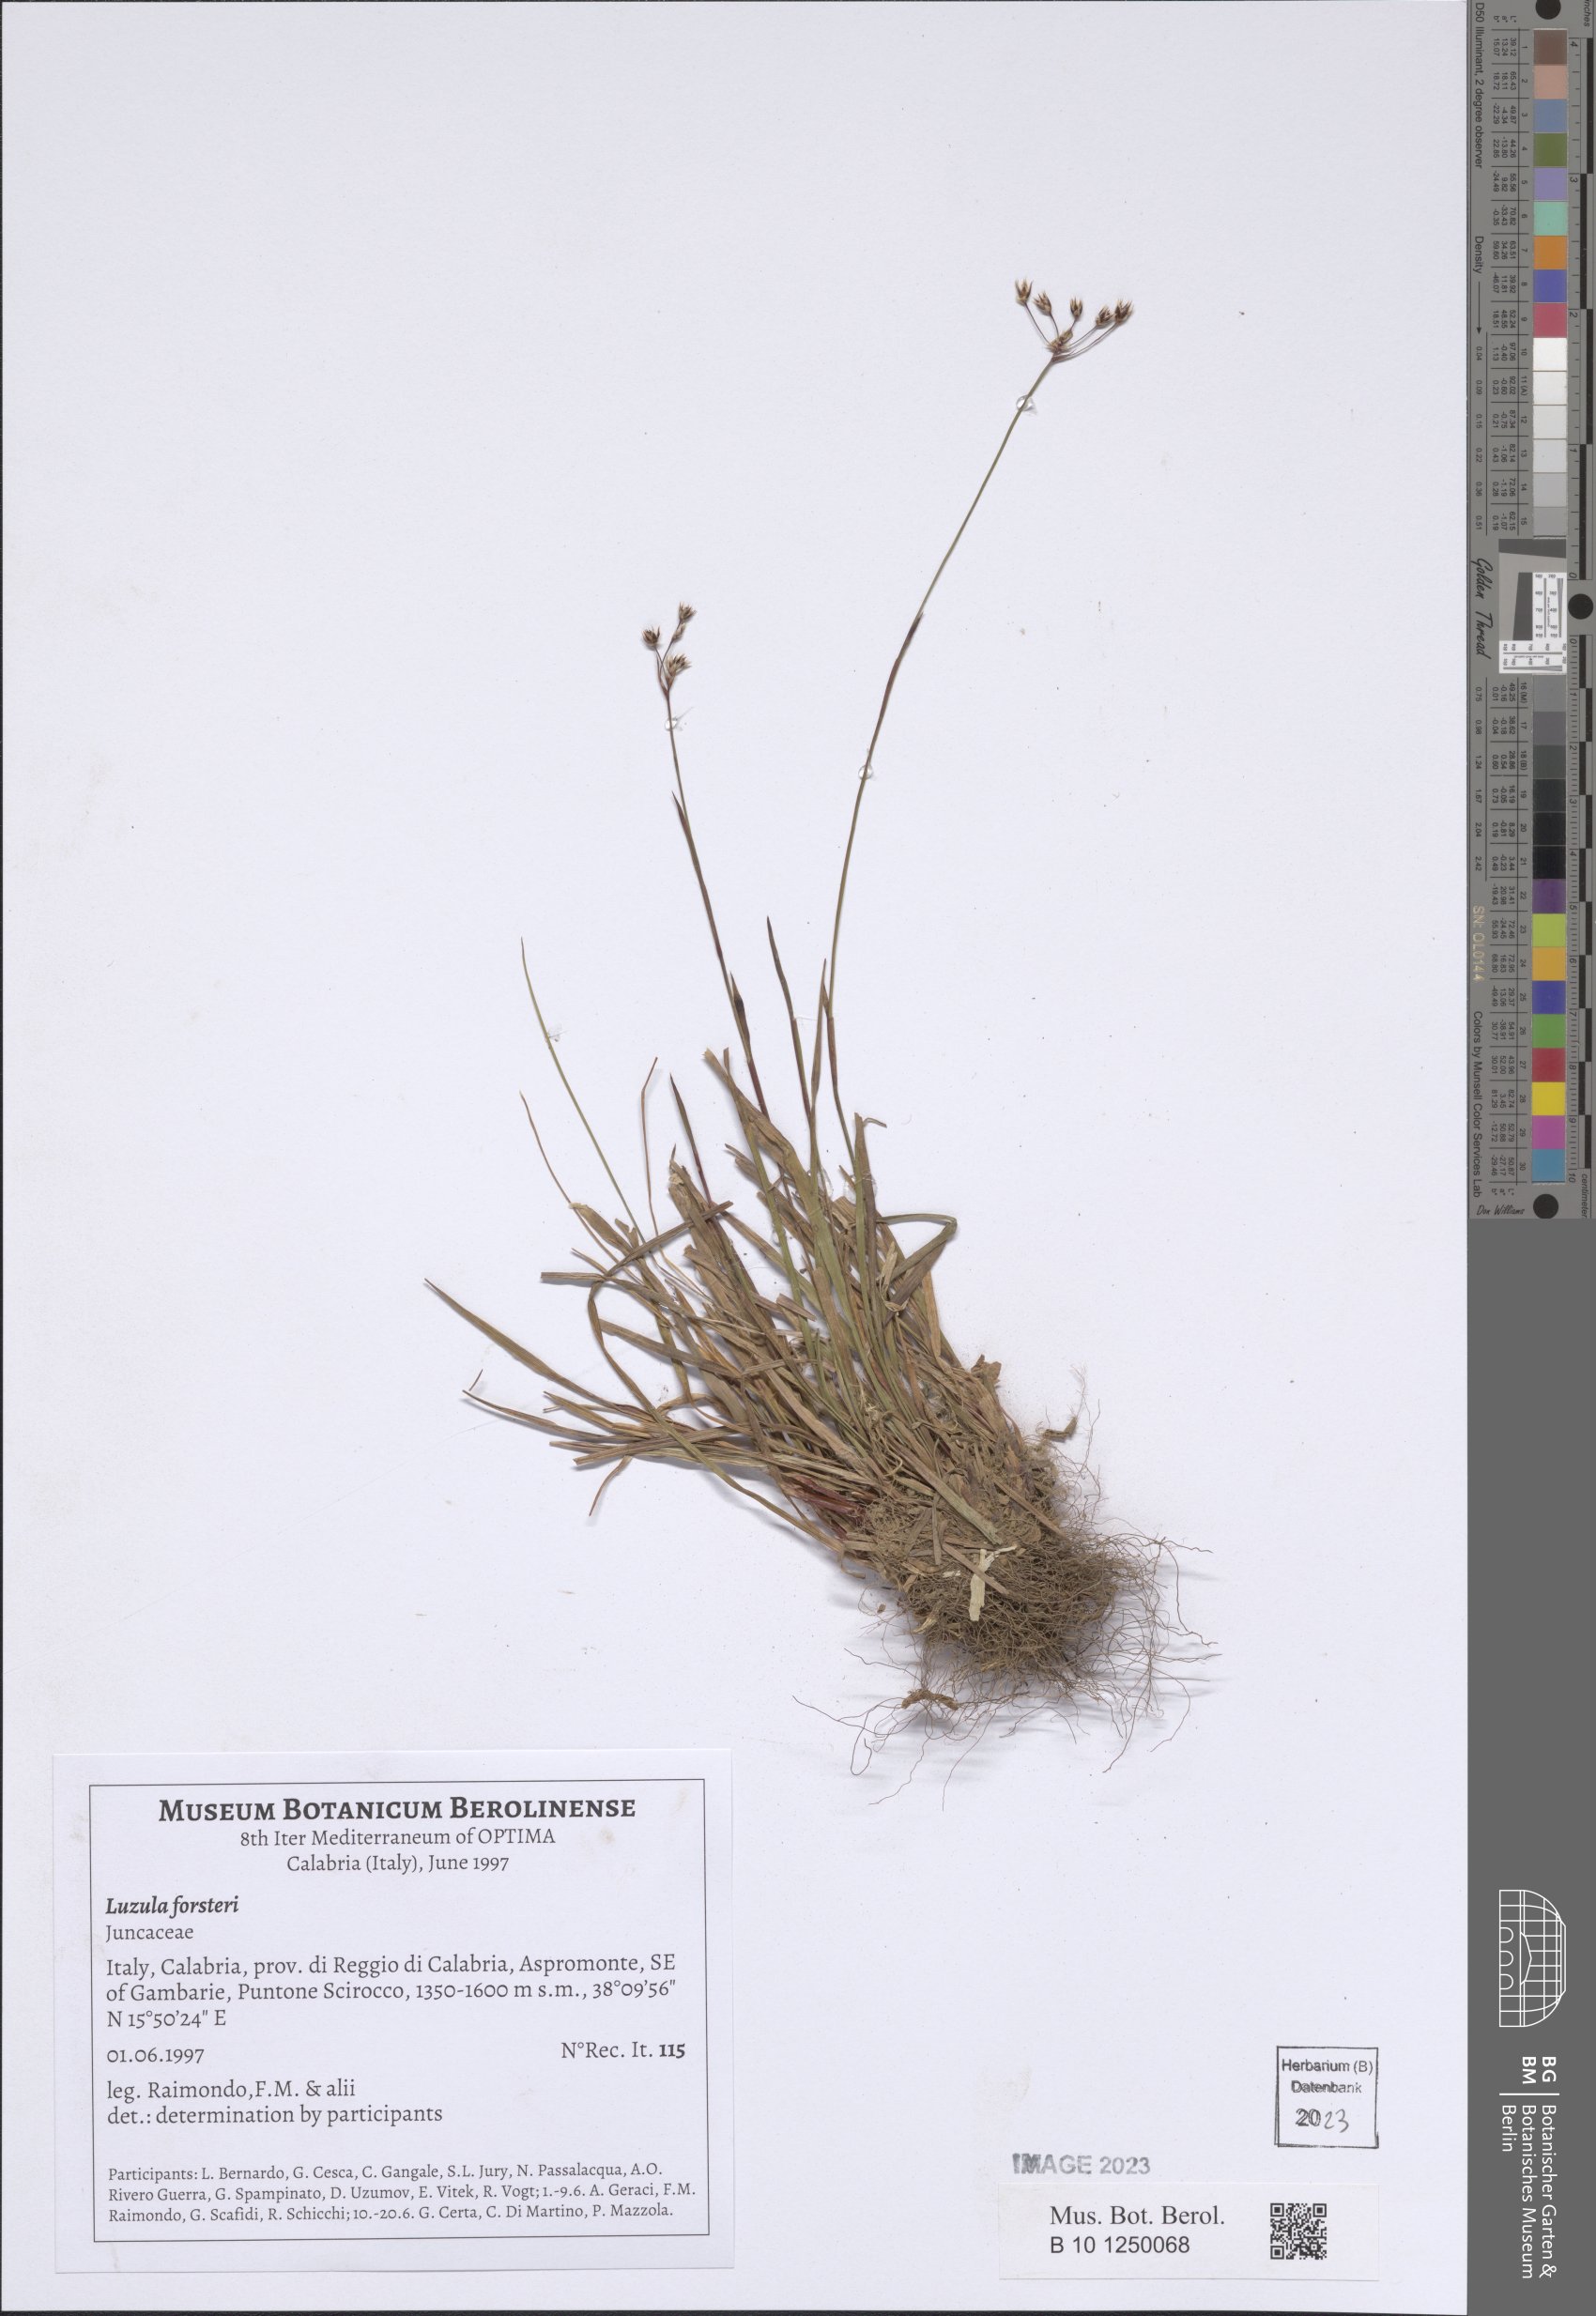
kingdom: Plantae
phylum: Tracheophyta
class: Liliopsida
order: Poales
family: Juncaceae
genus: Luzula
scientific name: Luzula forsteri
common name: Southern wood-rush
